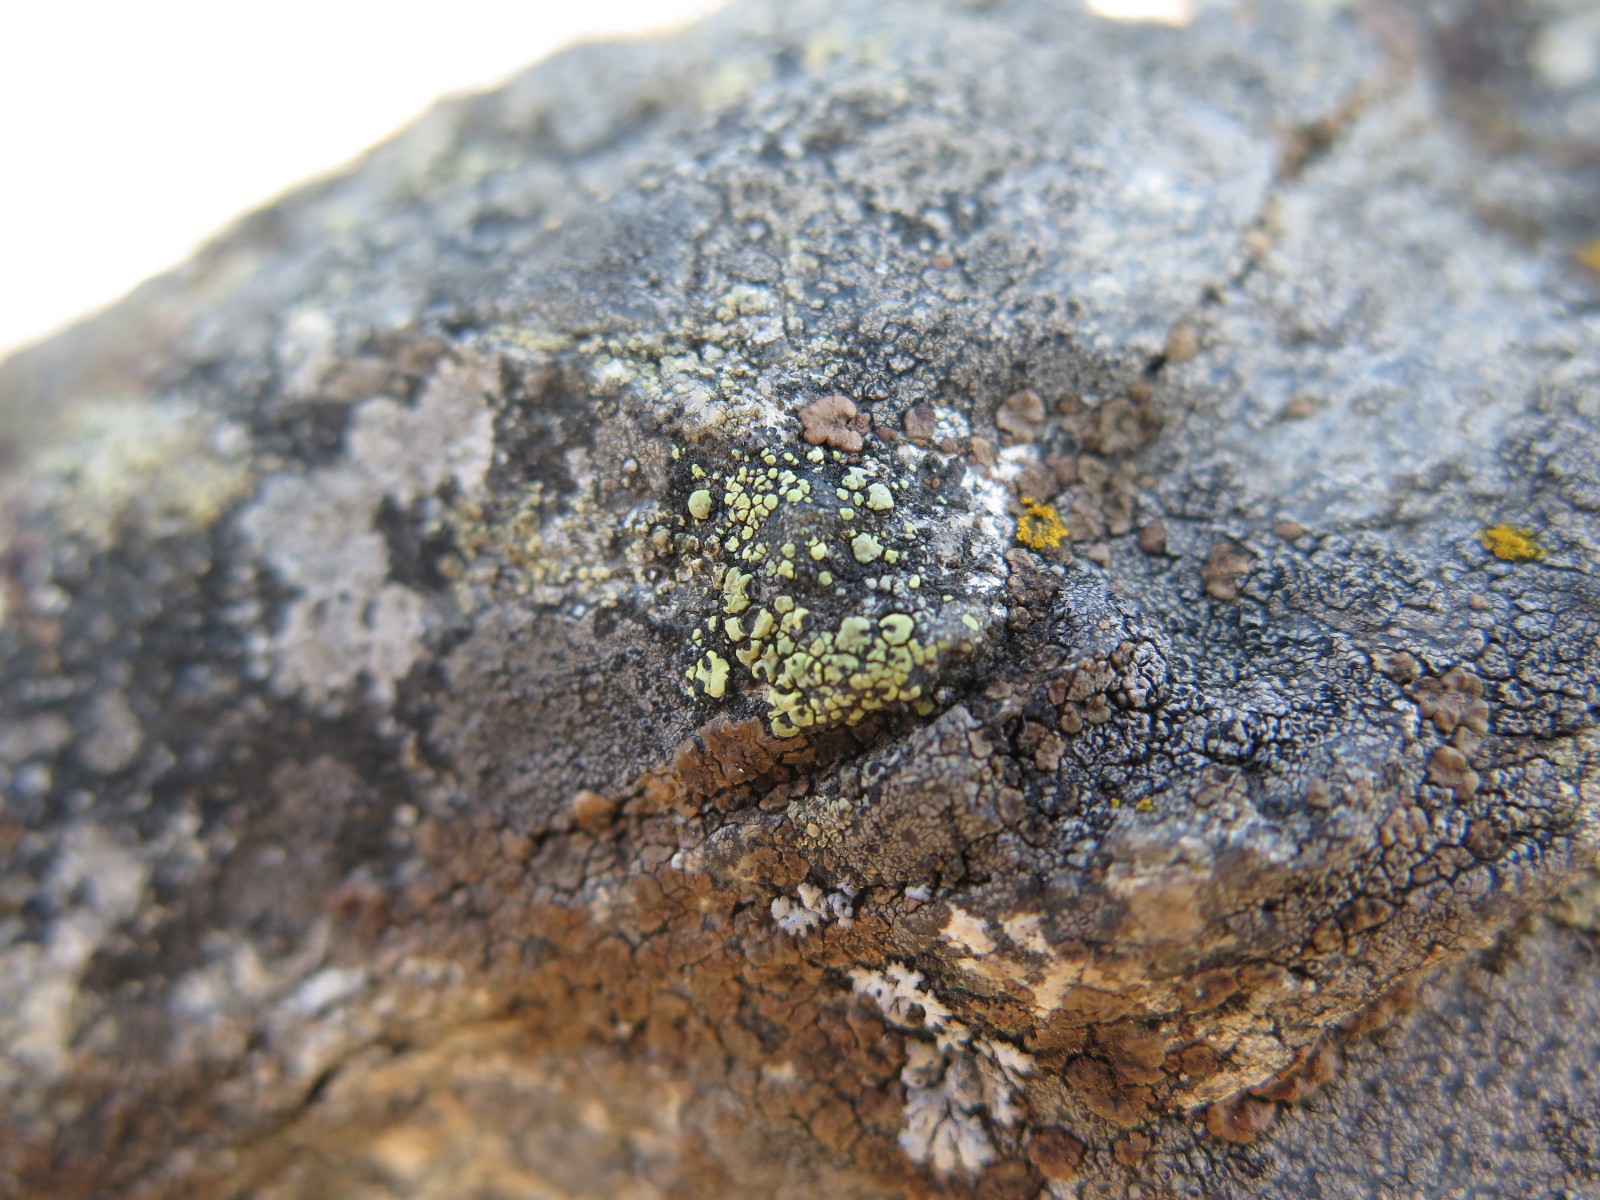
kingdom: Fungi
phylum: Ascomycota
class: Lecanoromycetes
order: Rhizocarpales
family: Rhizocarpaceae
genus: Rhizocarpon
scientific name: Rhizocarpon lecanorinum
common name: krave-landkortlav
